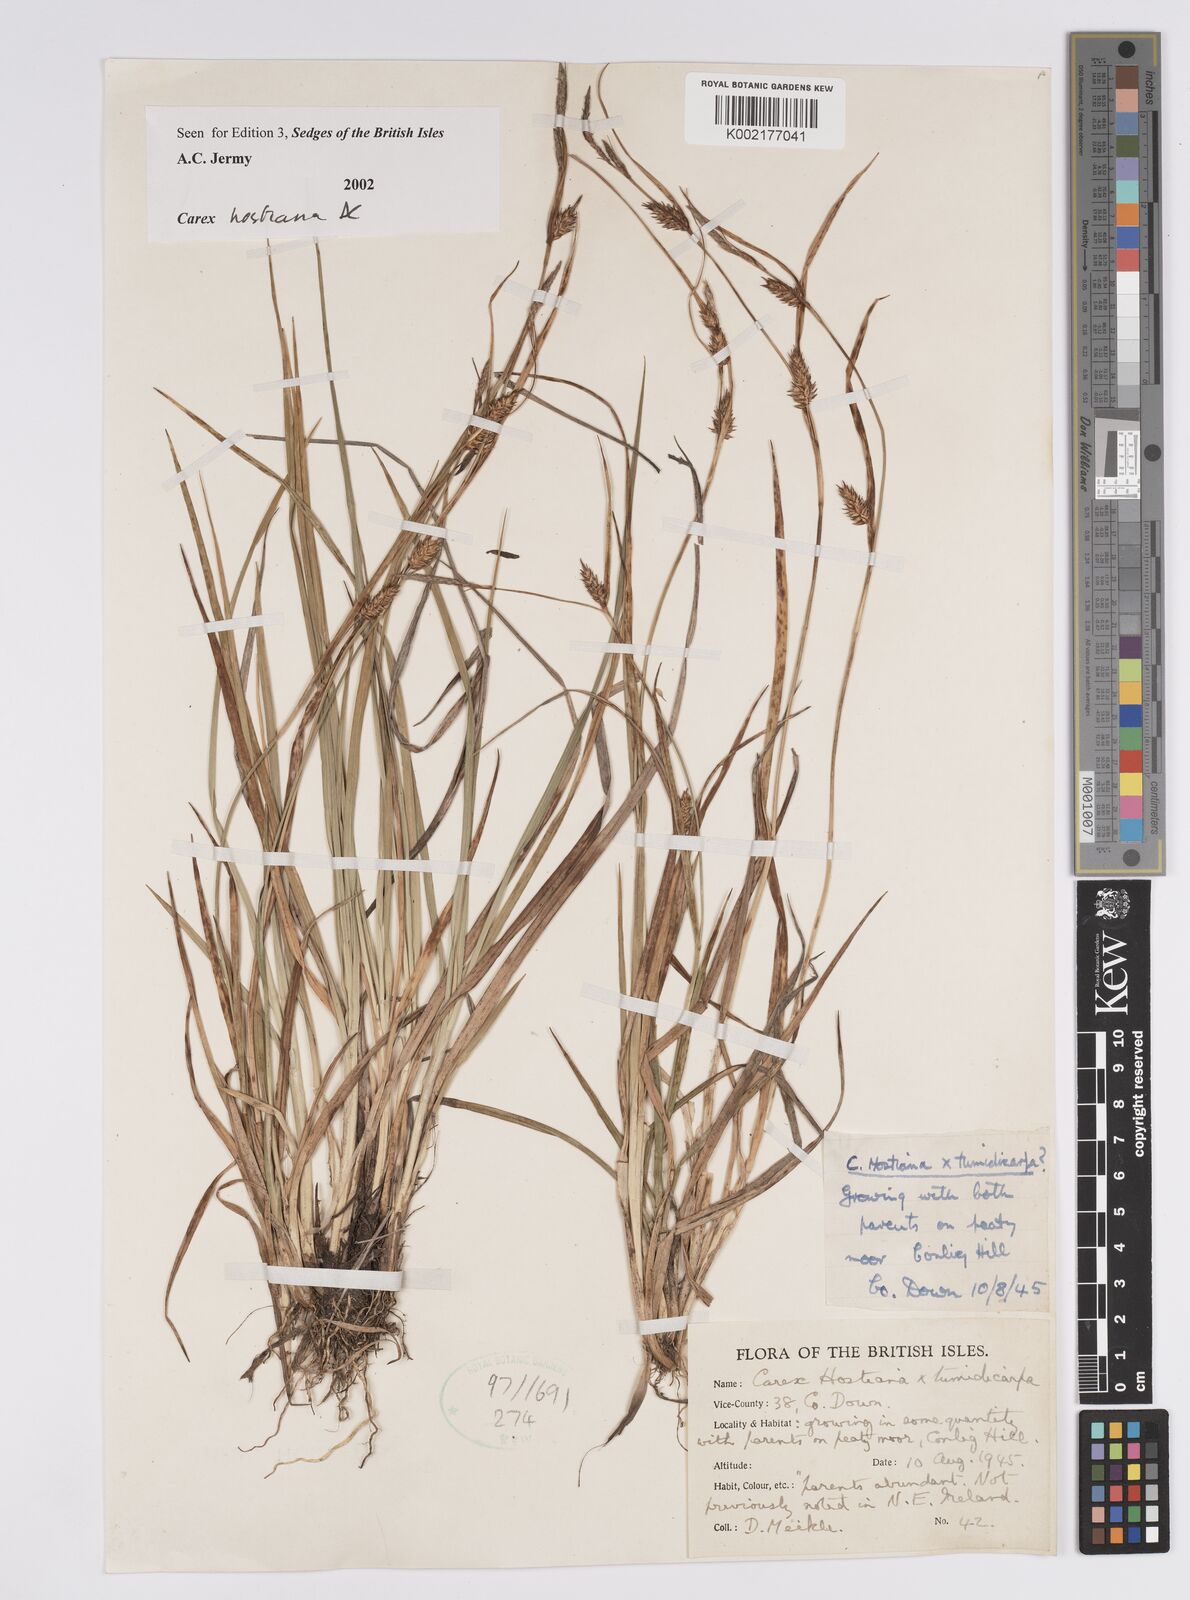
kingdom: Plantae
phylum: Tracheophyta
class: Liliopsida
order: Poales
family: Cyperaceae
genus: Carex
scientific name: Carex hostiana
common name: Tawny sedge
